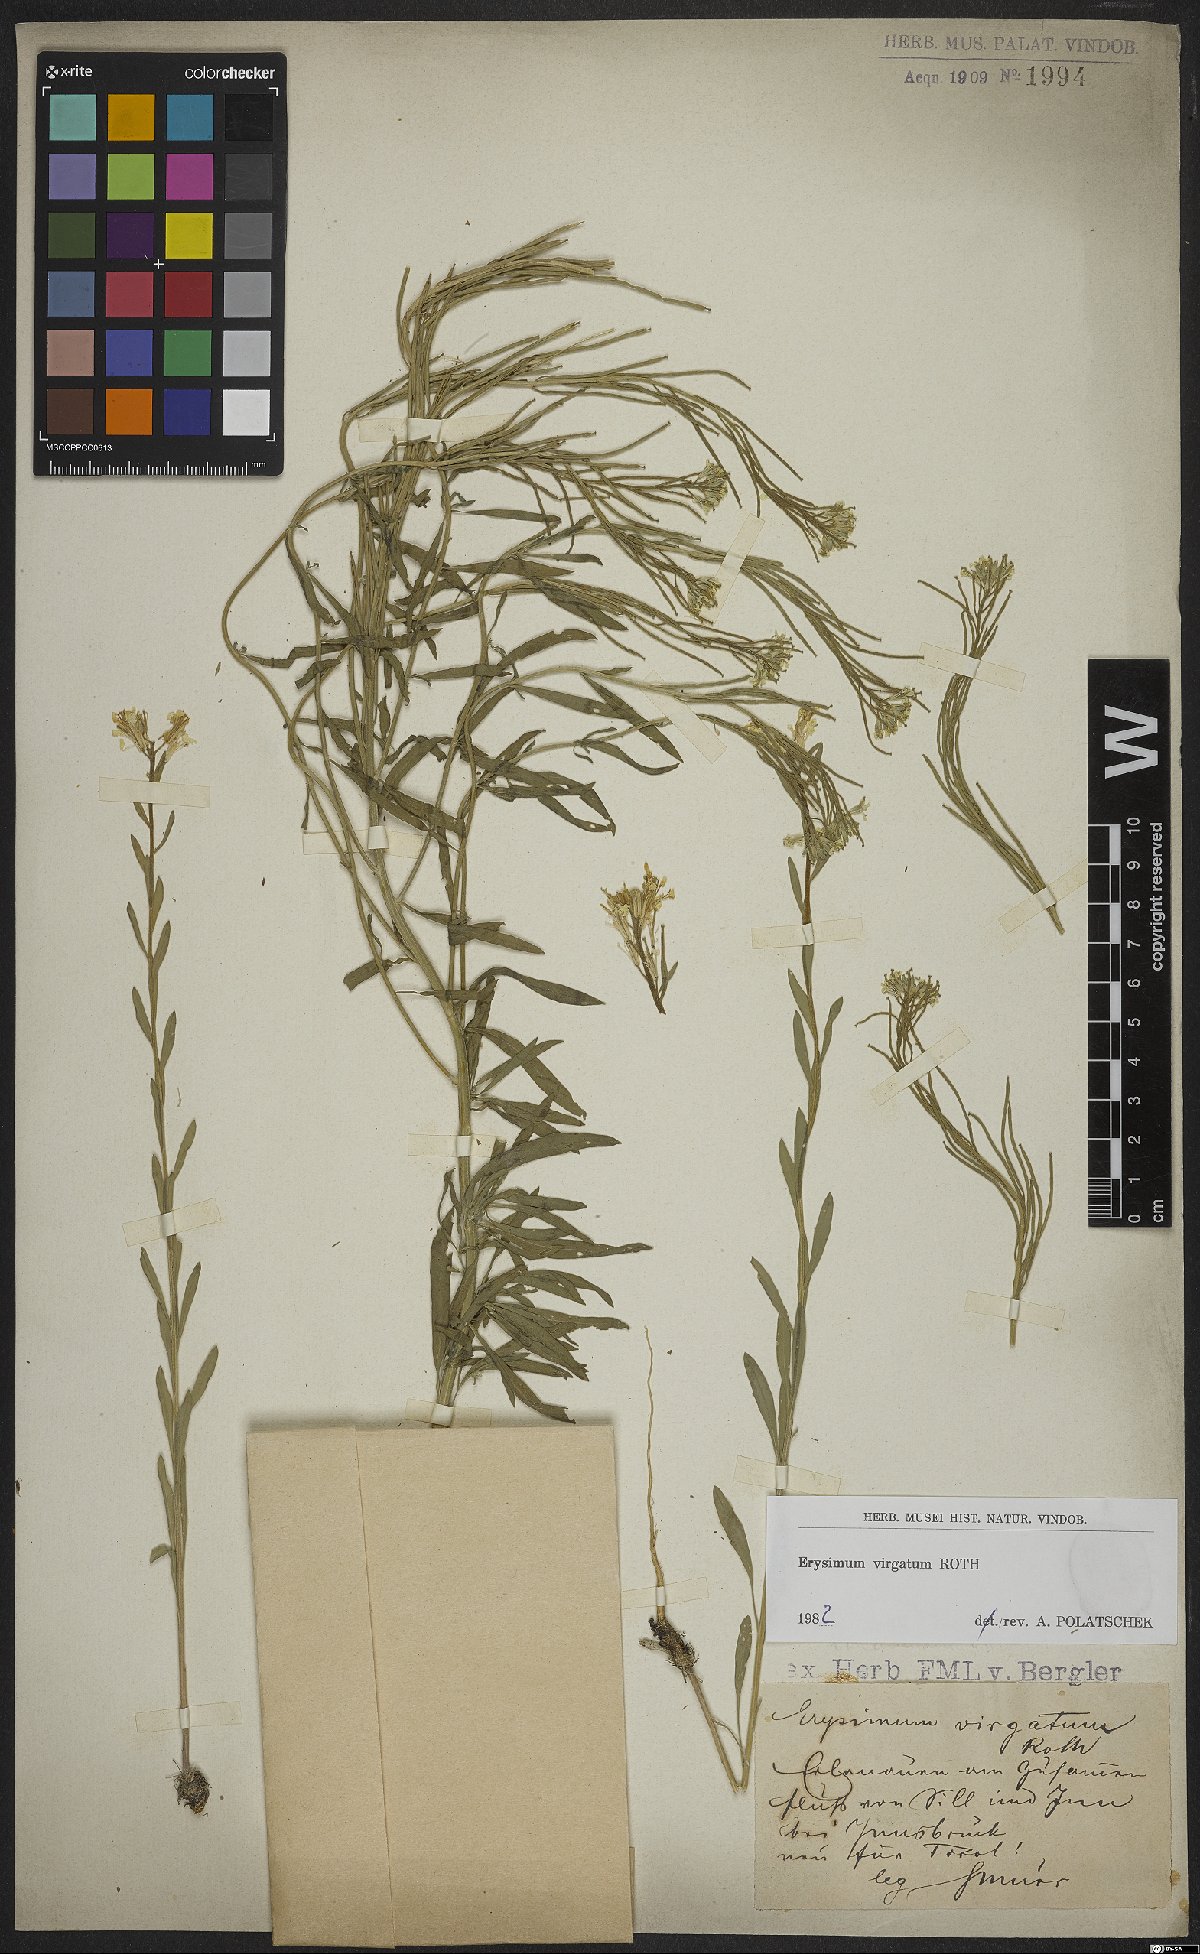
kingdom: Plantae
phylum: Tracheophyta
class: Magnoliopsida
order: Brassicales
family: Brassicaceae
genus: Erysimum
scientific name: Erysimum virgatum
